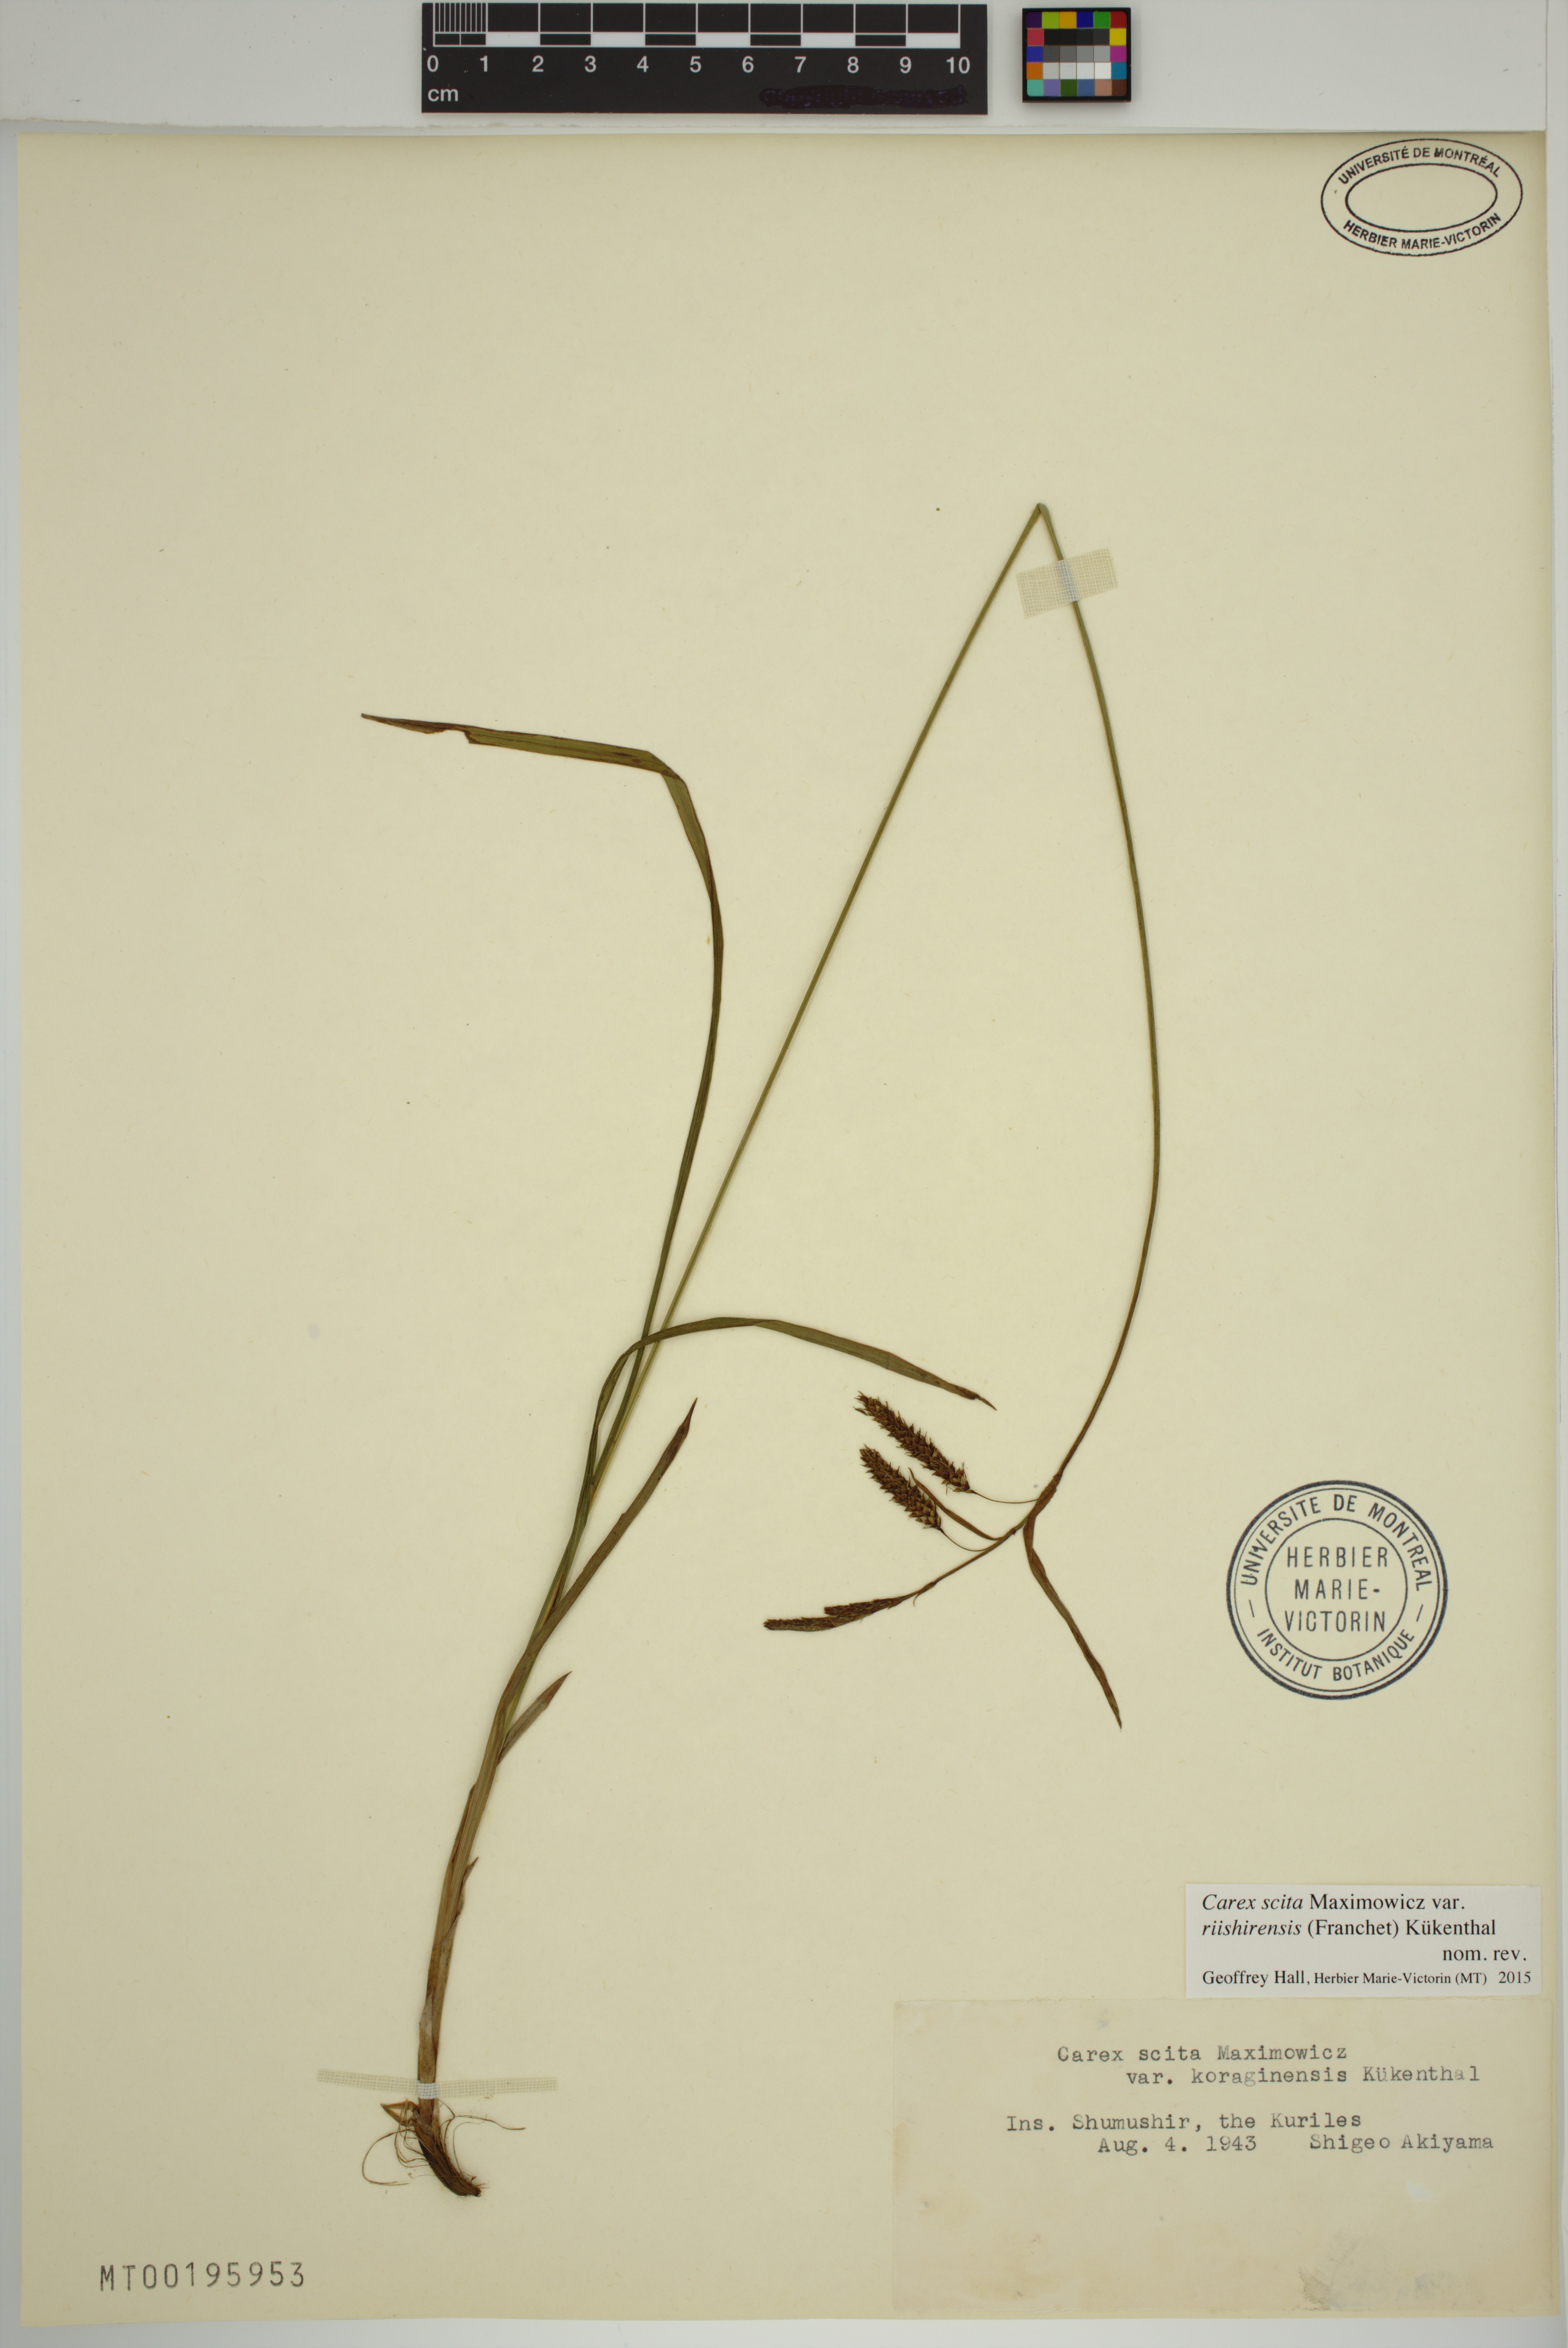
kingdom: Plantae
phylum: Tracheophyta
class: Liliopsida
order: Poales
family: Cyperaceae
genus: Carex
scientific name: Carex scita
